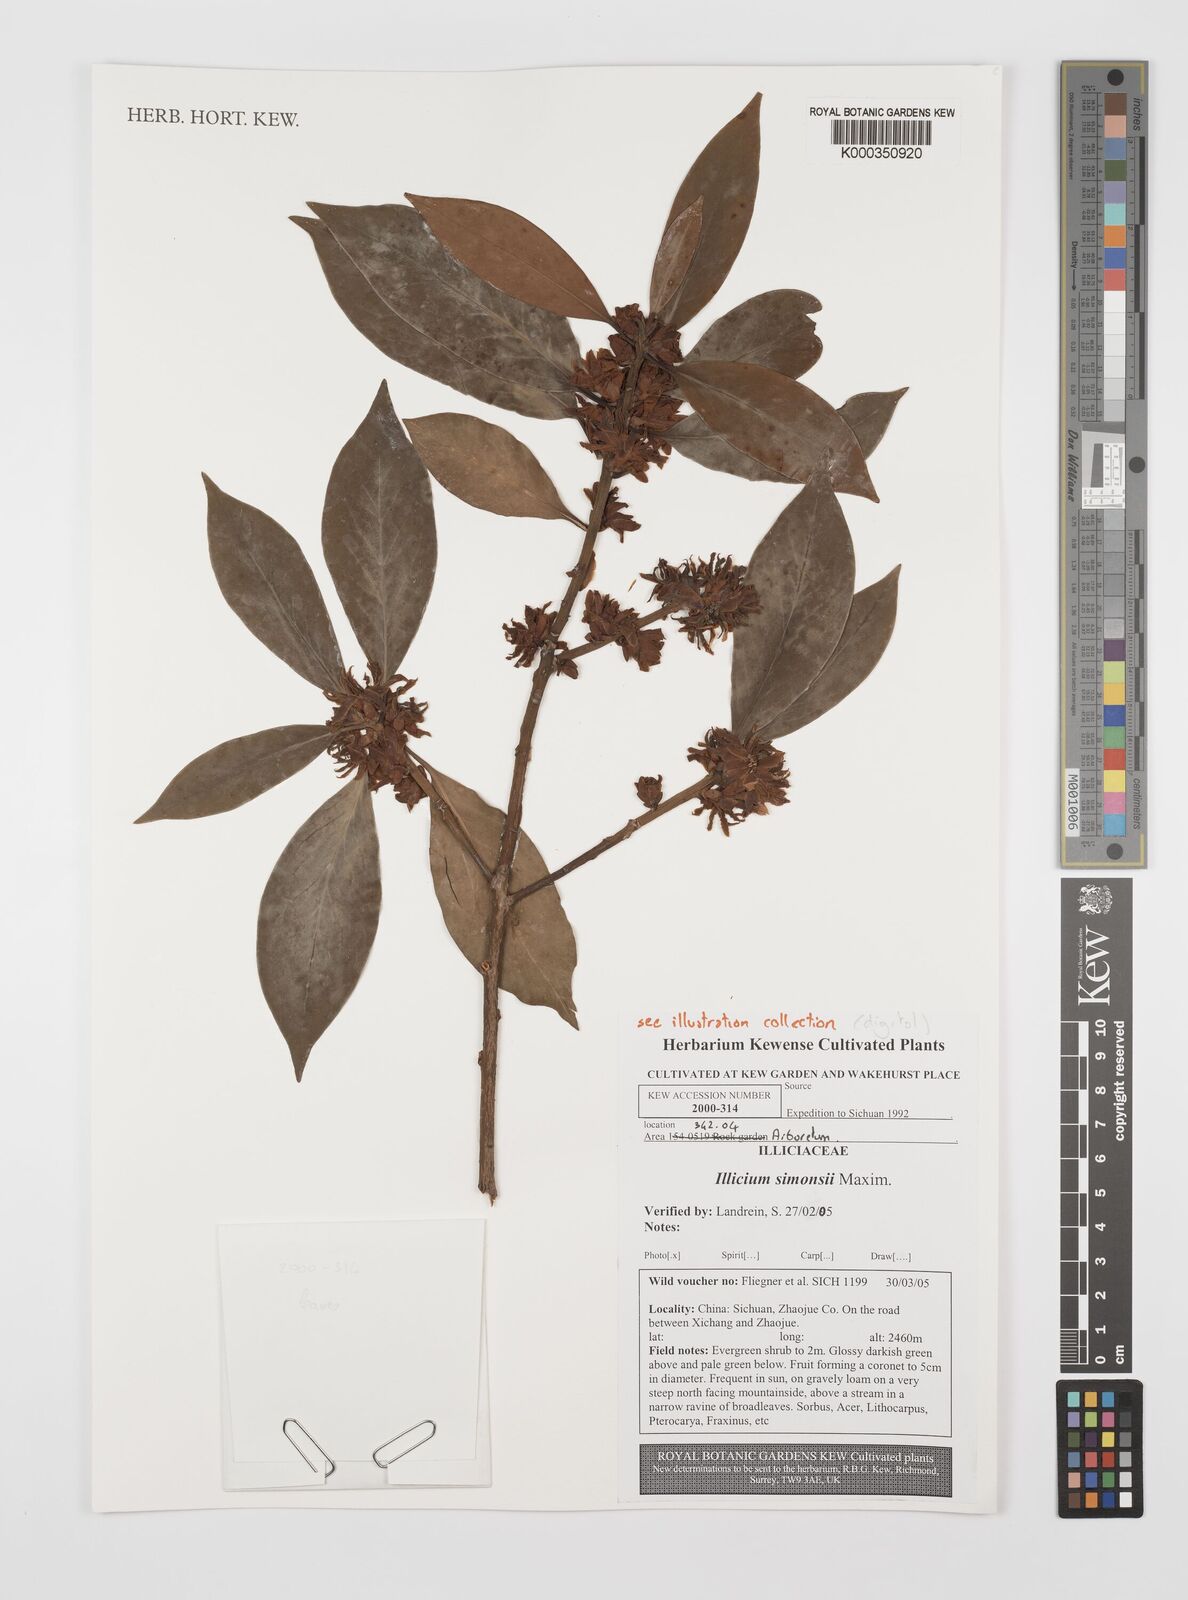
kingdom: Plantae
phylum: Tracheophyta
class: Magnoliopsida
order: Austrobaileyales
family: Schisandraceae
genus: Illicium
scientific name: Illicium simonsii
